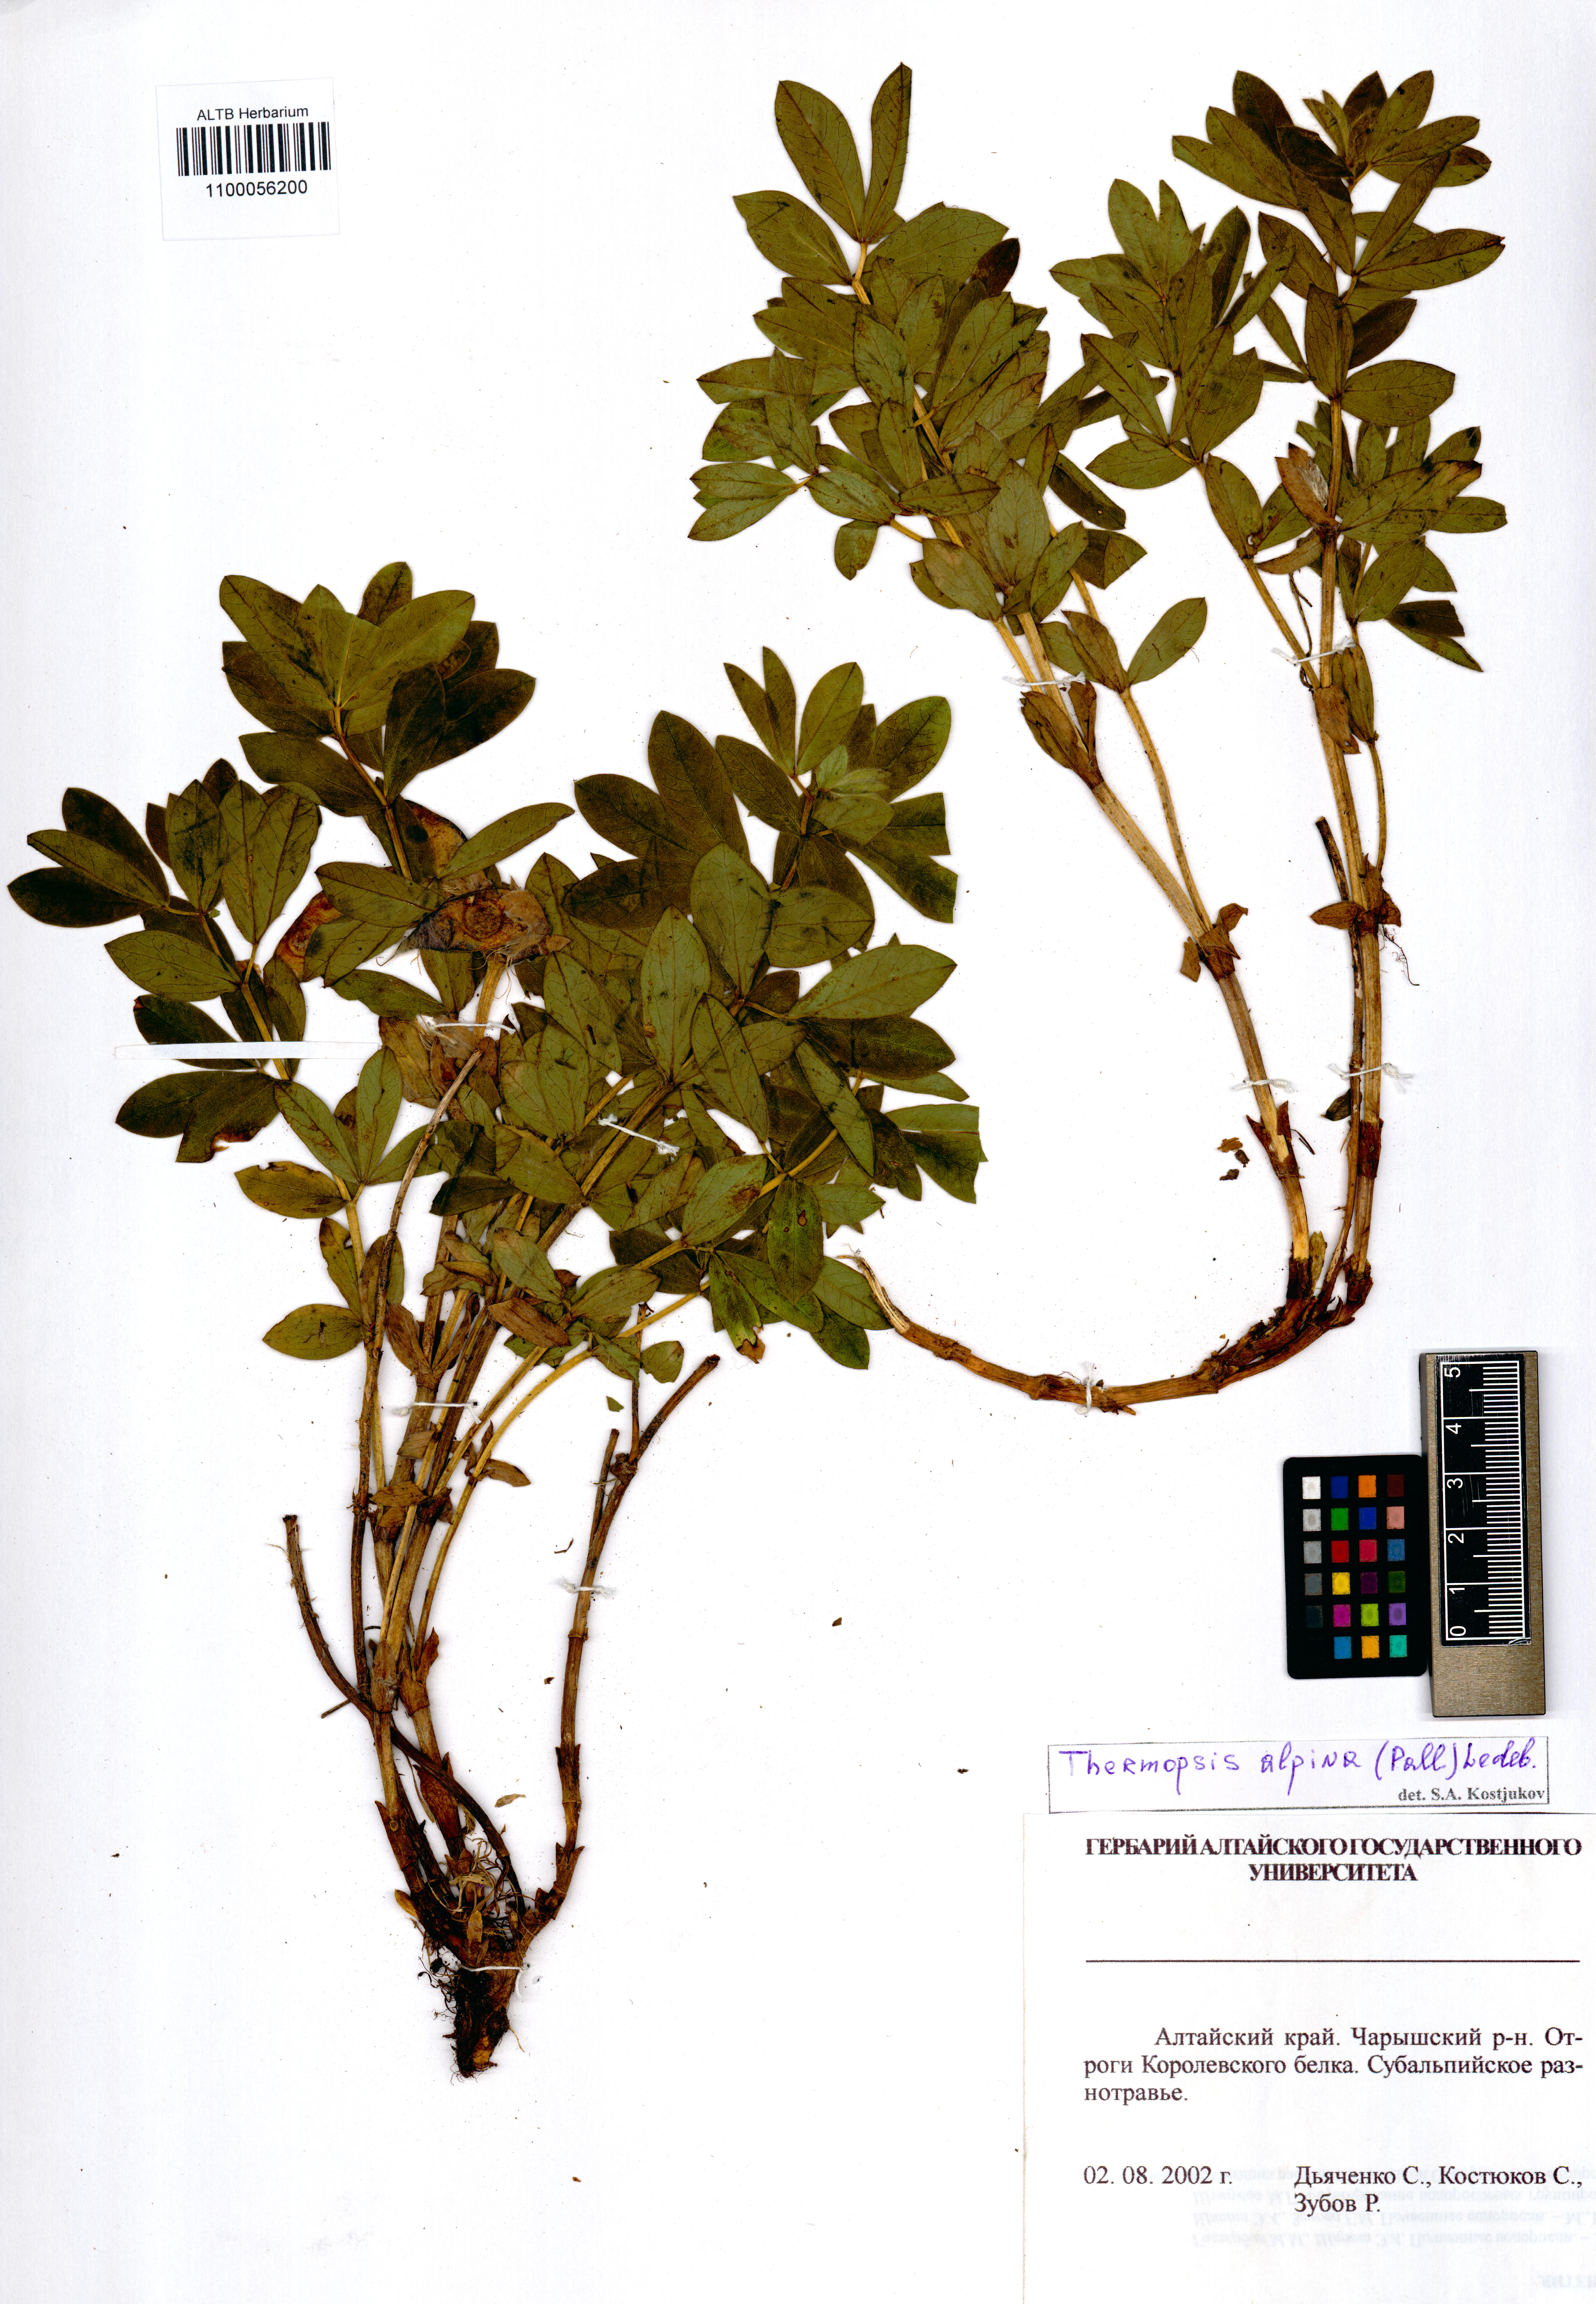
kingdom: Plantae
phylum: Tracheophyta
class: Magnoliopsida
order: Fabales
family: Fabaceae
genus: Thermopsis
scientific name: Thermopsis alpina
